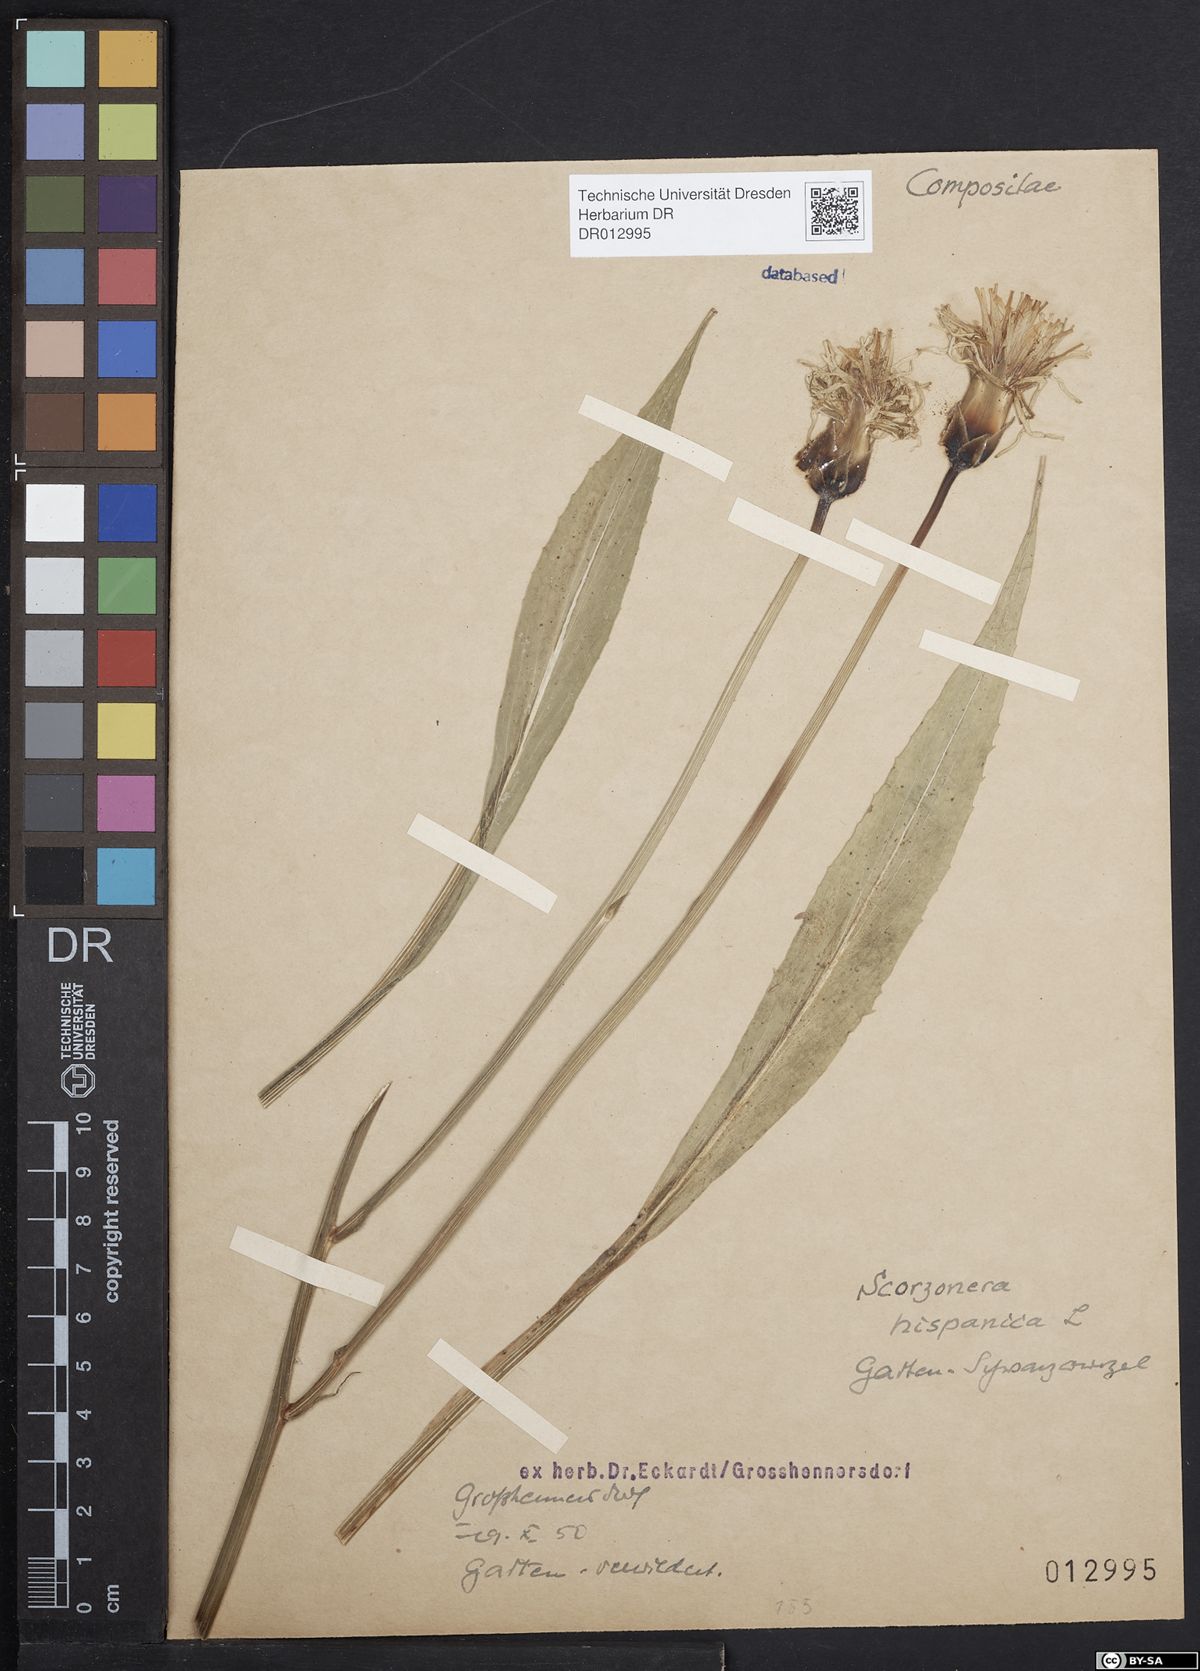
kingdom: Plantae
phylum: Tracheophyta
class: Magnoliopsida
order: Asterales
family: Asteraceae
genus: Pseudopodospermum
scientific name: Pseudopodospermum hispanicum
